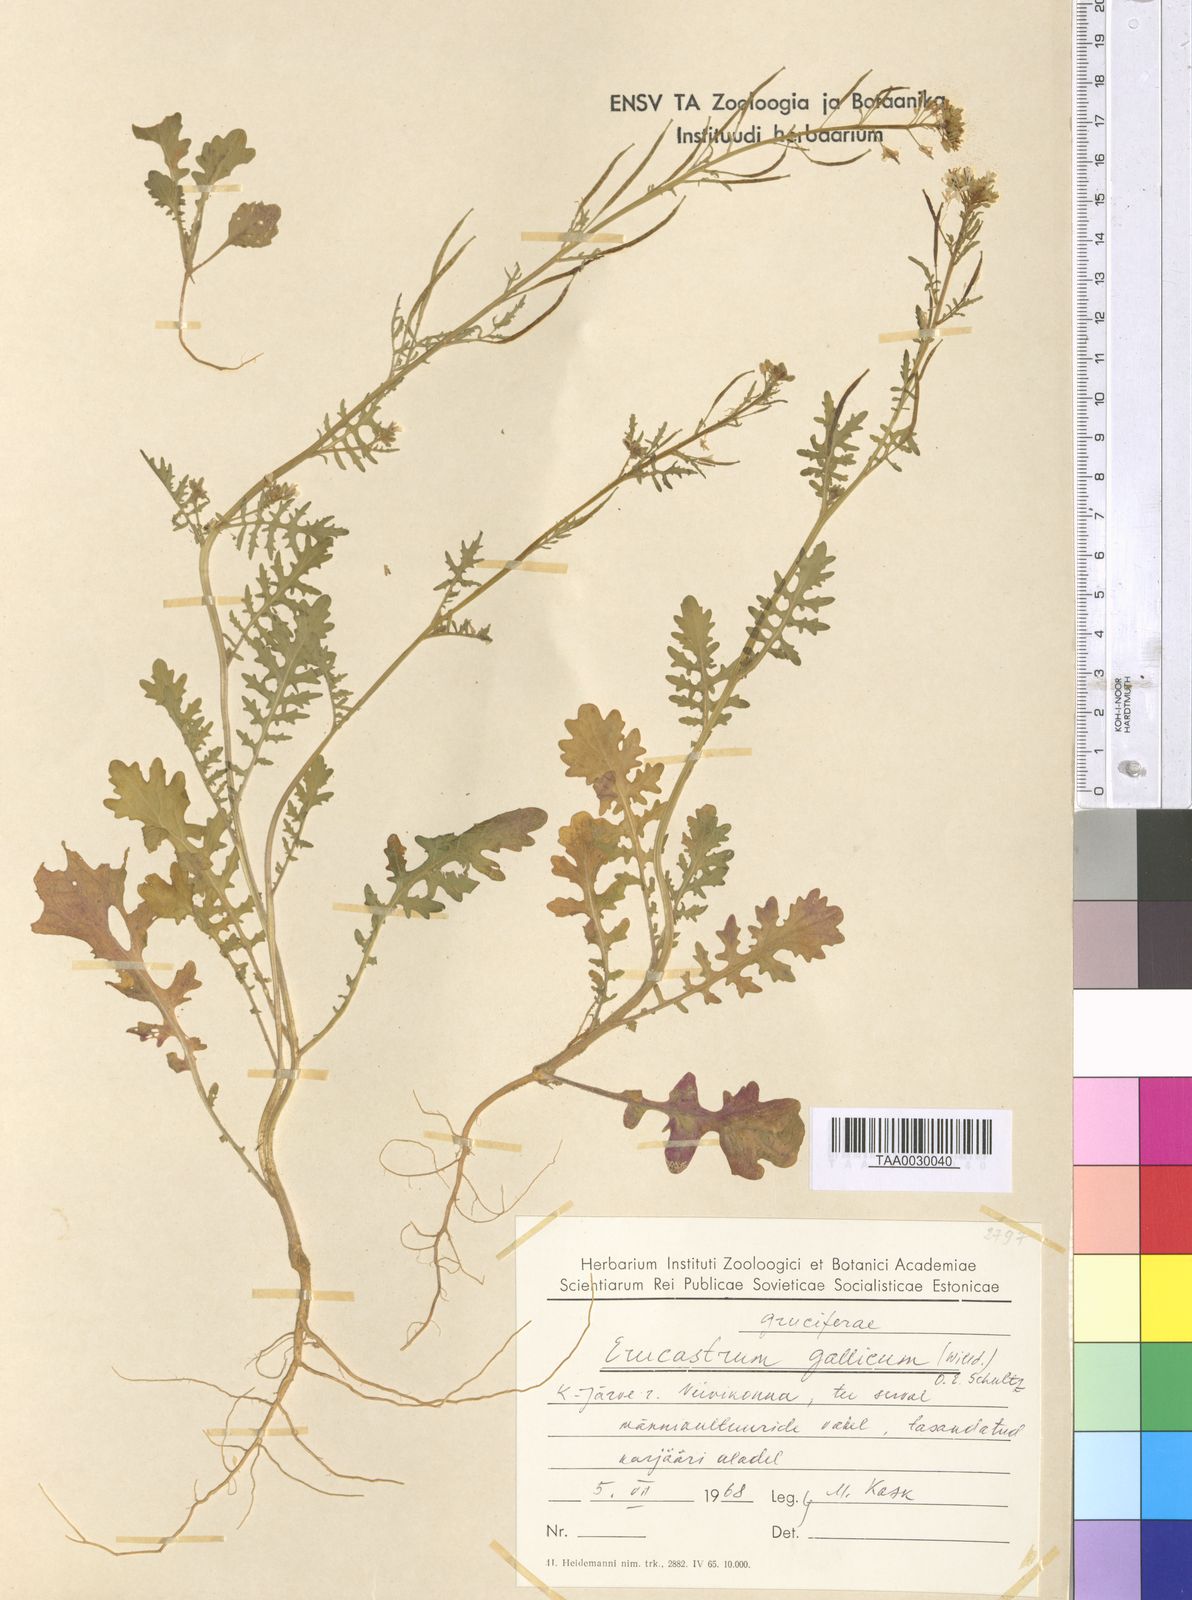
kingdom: Plantae
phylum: Tracheophyta
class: Magnoliopsida
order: Brassicales
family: Brassicaceae
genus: Erucastrum
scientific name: Erucastrum gallicum
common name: Hairy rocket
